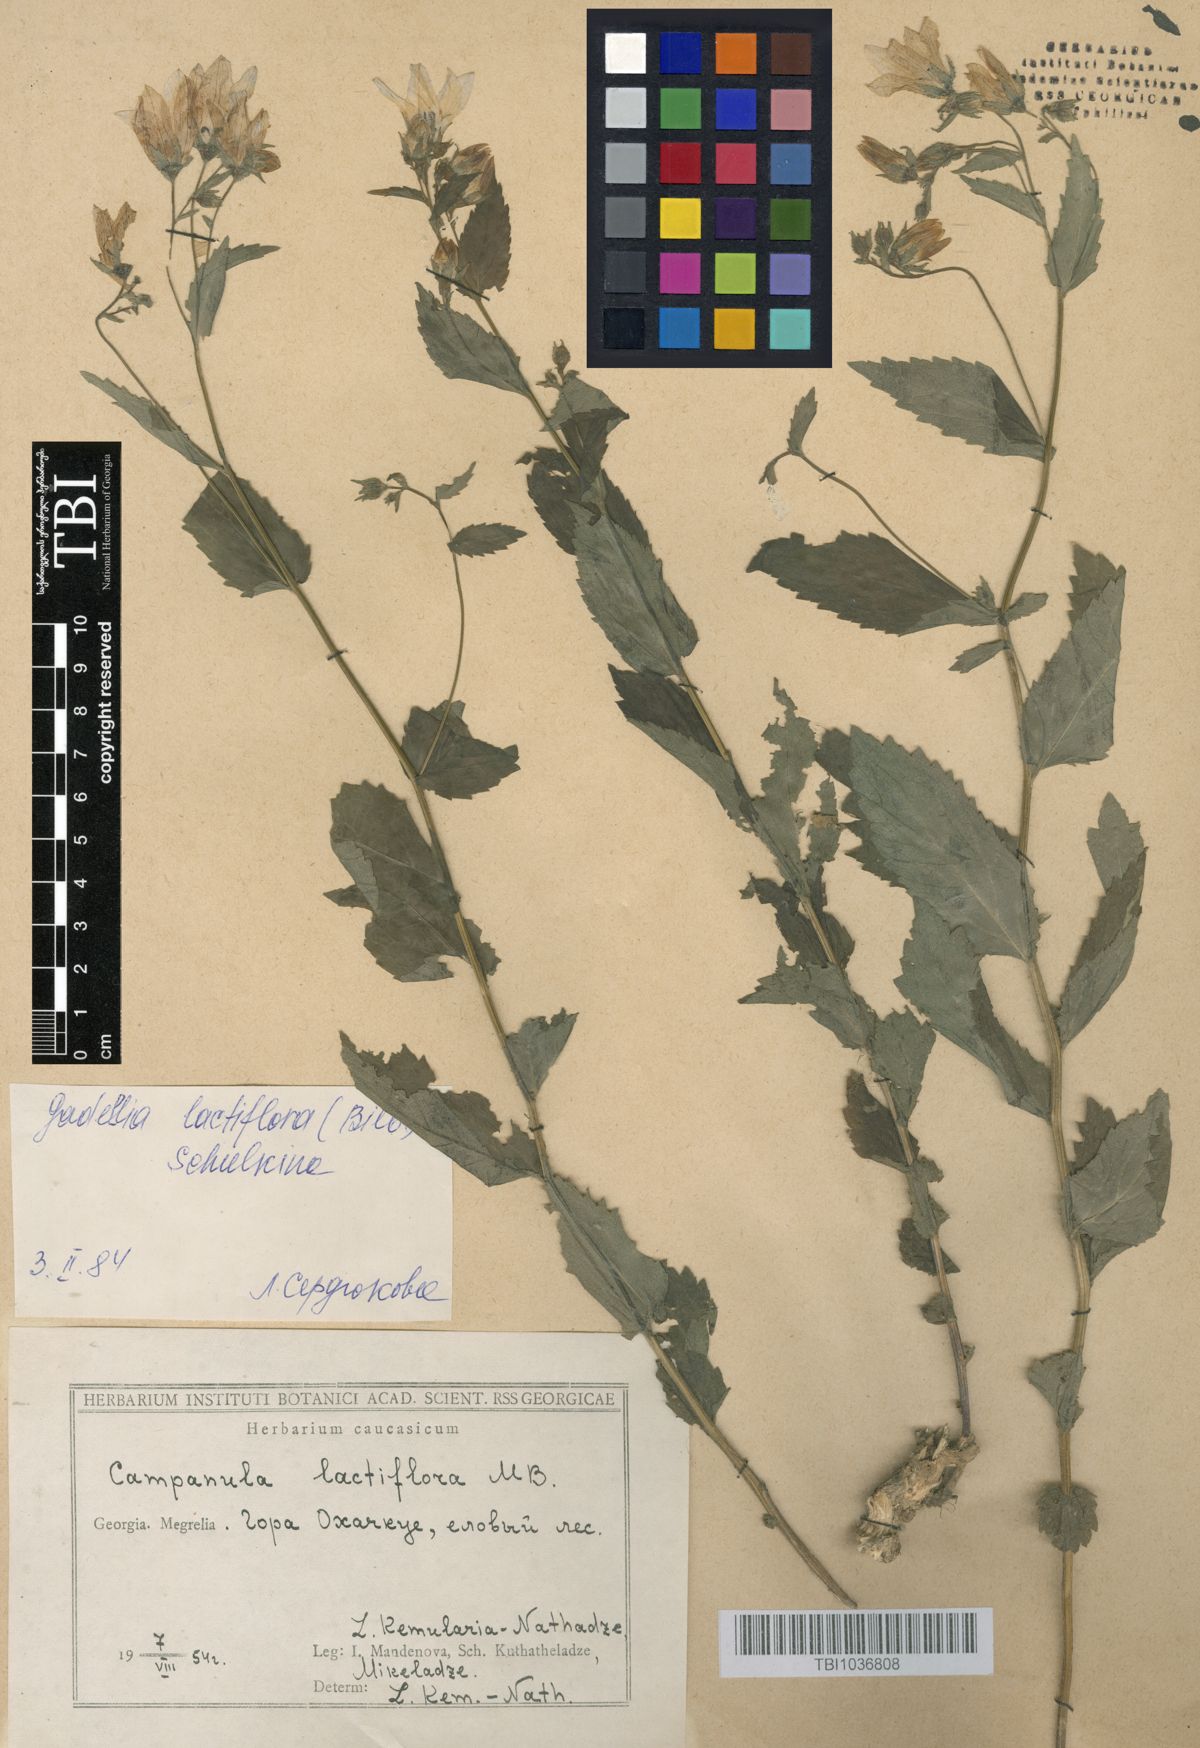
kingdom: Plantae
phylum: Tracheophyta
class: Magnoliopsida
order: Asterales
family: Campanulaceae
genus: Campanula
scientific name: Campanula lactiflora
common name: Milky bellflower
